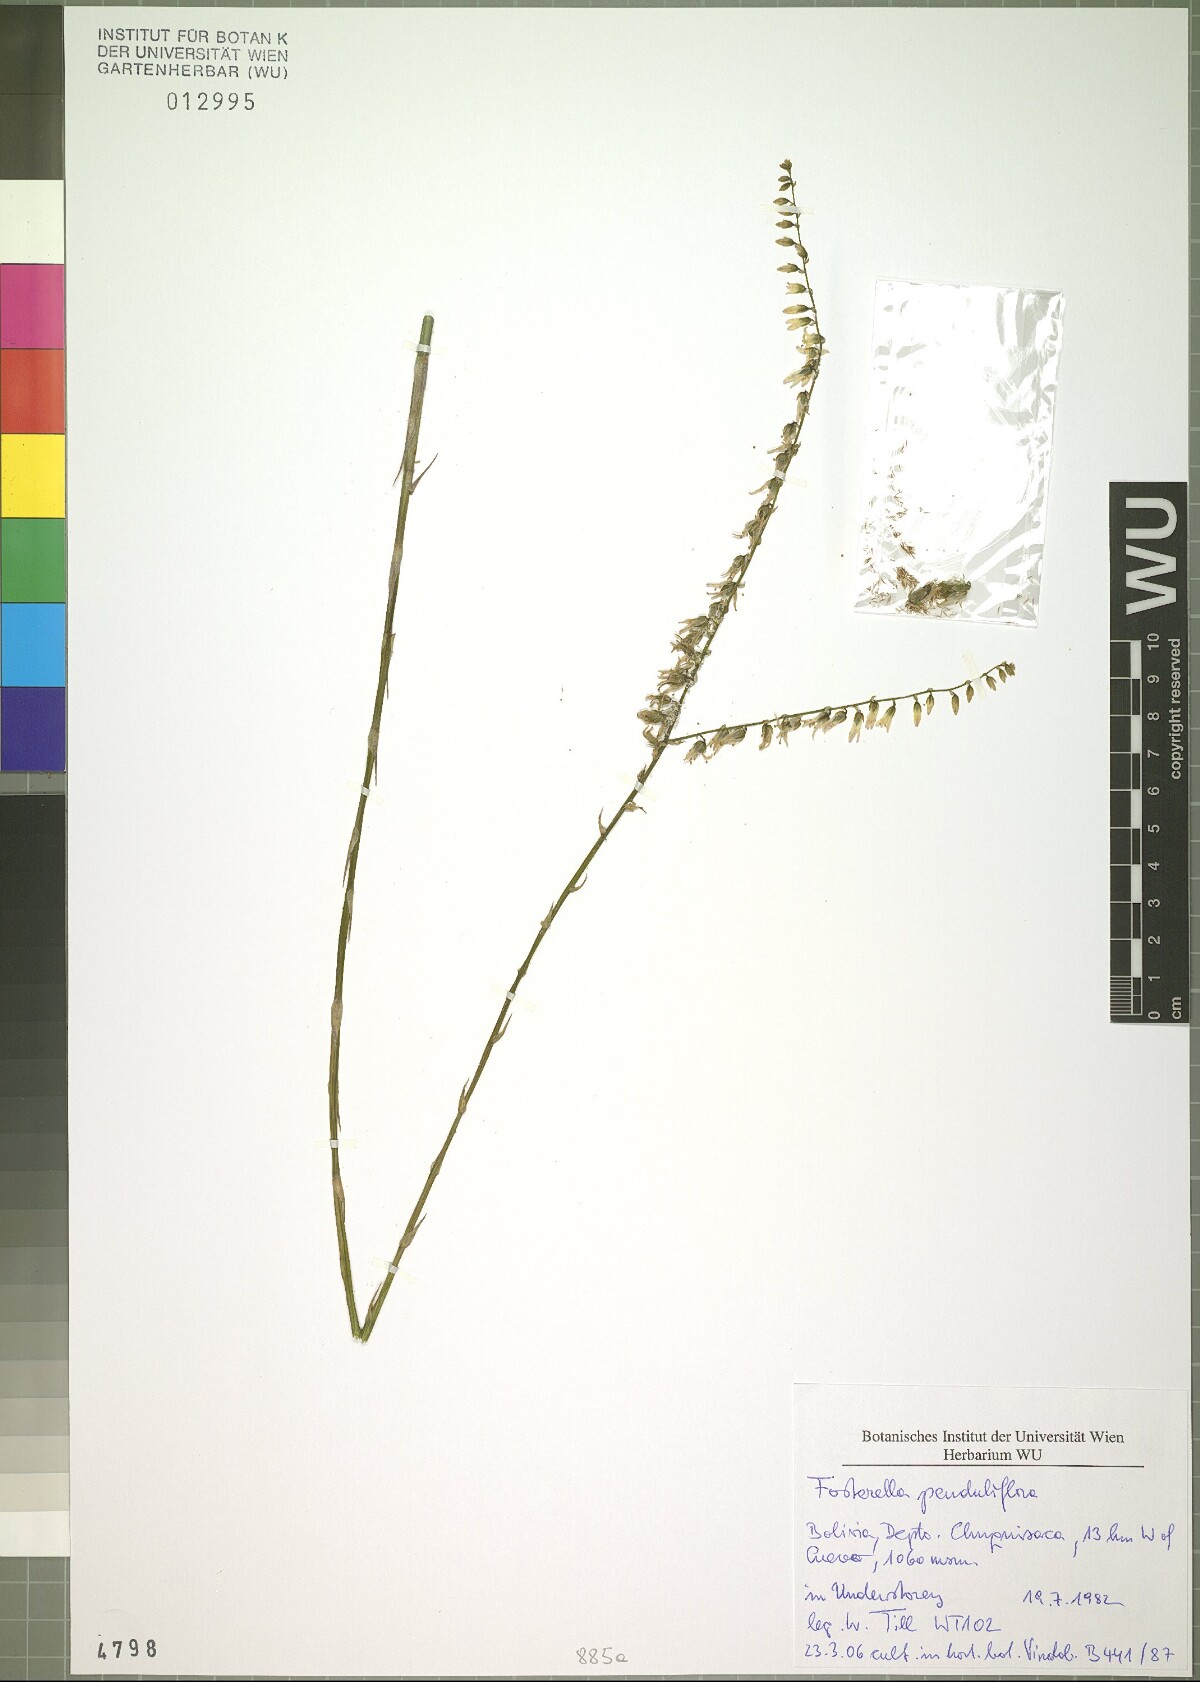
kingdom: Plantae
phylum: Tracheophyta
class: Liliopsida
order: Poales
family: Bromeliaceae
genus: Fosterella
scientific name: Fosterella penduliflora
